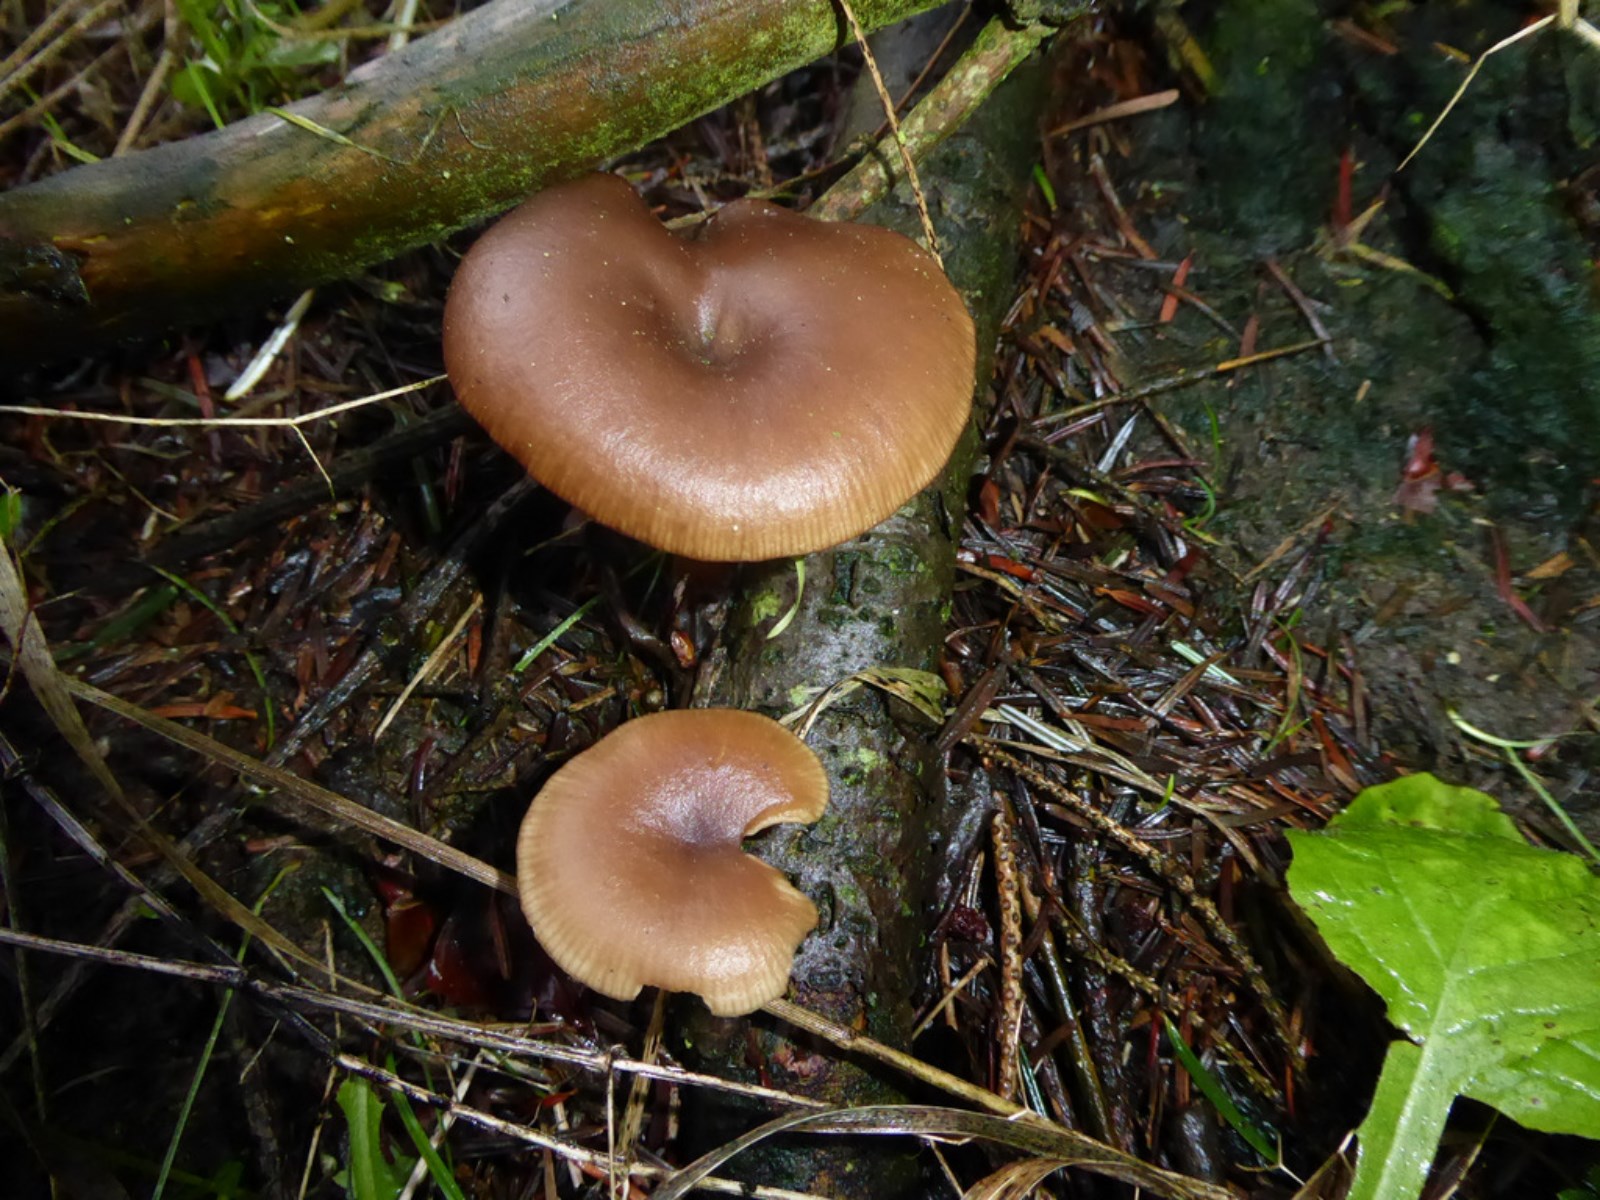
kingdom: Fungi
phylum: Basidiomycota
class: Agaricomycetes
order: Agaricales
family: Pseudoclitocybaceae
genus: Pseudoclitocybe
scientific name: Pseudoclitocybe cyathiformis
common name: almindelig bægertragthat
